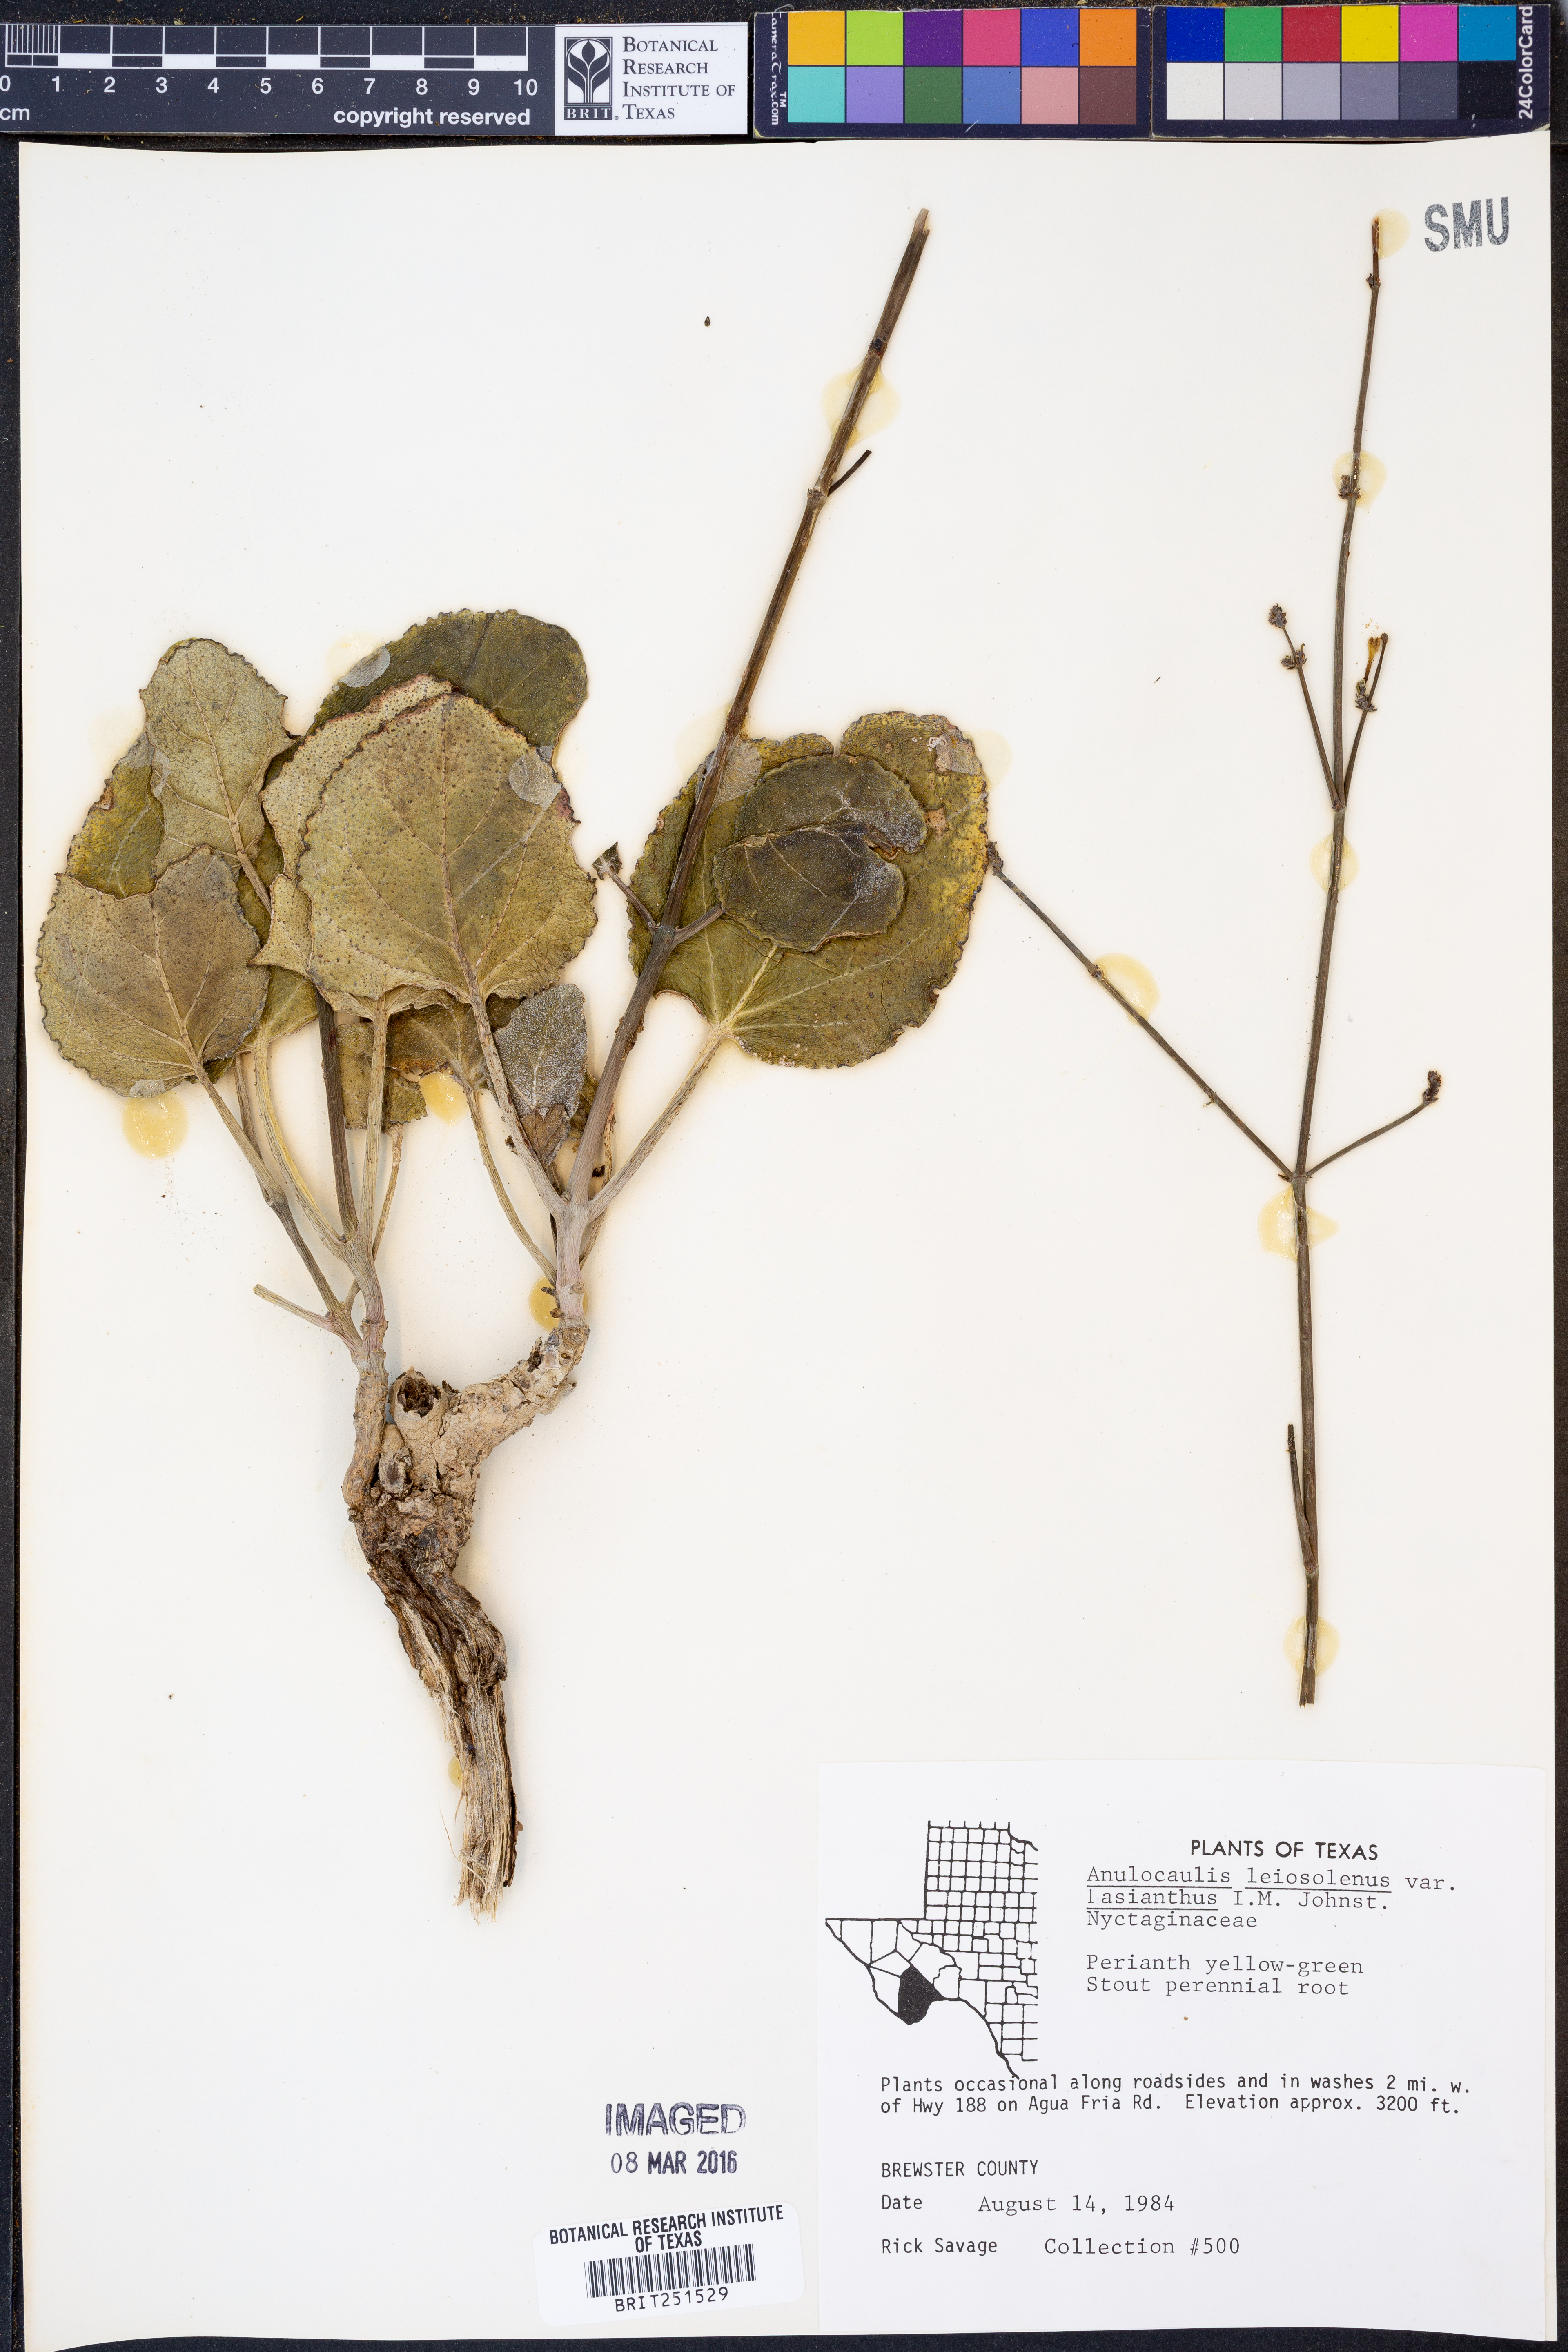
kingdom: Plantae
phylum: Tracheophyta
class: Magnoliopsida
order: Caryophyllales
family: Nyctaginaceae
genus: Anulocaulis
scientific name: Anulocaulis leiosolenus
